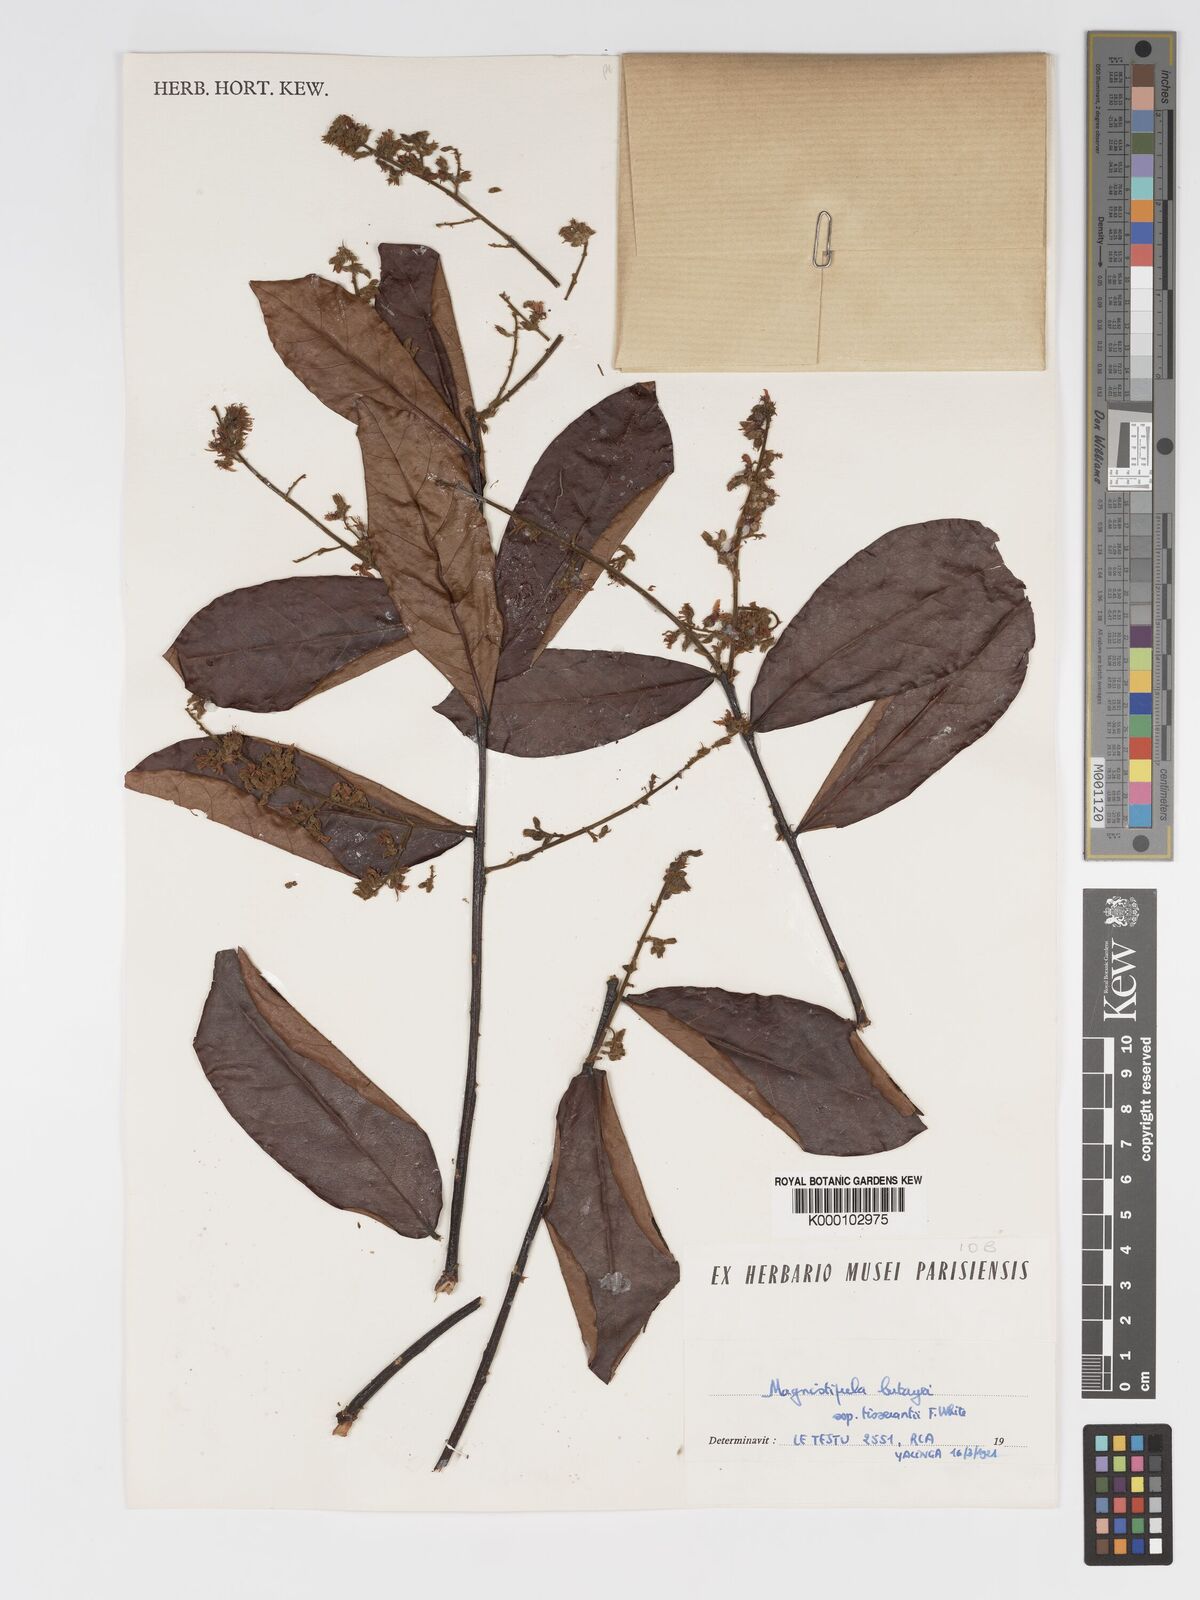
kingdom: Plantae
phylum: Tracheophyta
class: Magnoliopsida
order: Malpighiales
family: Chrysobalanaceae
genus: Magnistipula
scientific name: Magnistipula butayei
